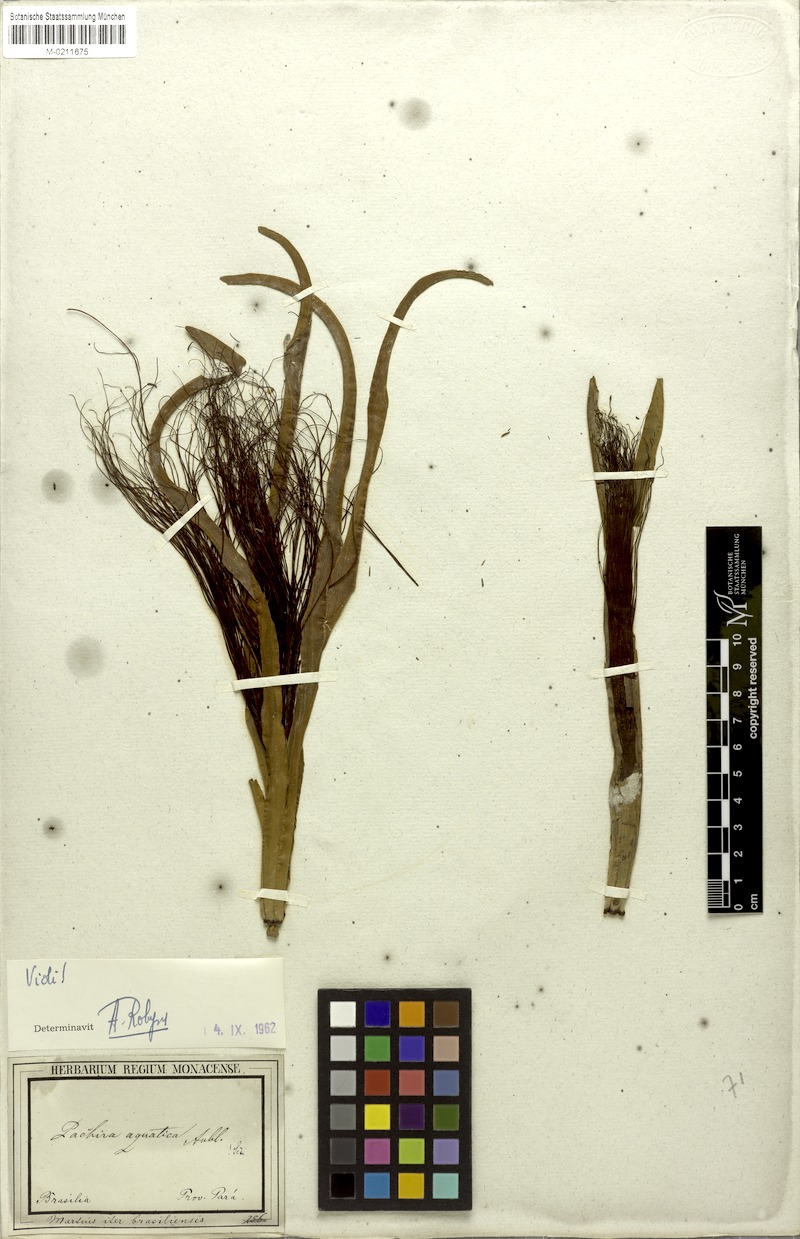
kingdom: Plantae
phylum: Tracheophyta
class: Magnoliopsida
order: Malvales
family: Malvaceae
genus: Pachira
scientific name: Pachira aquatica
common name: Provision-tree
